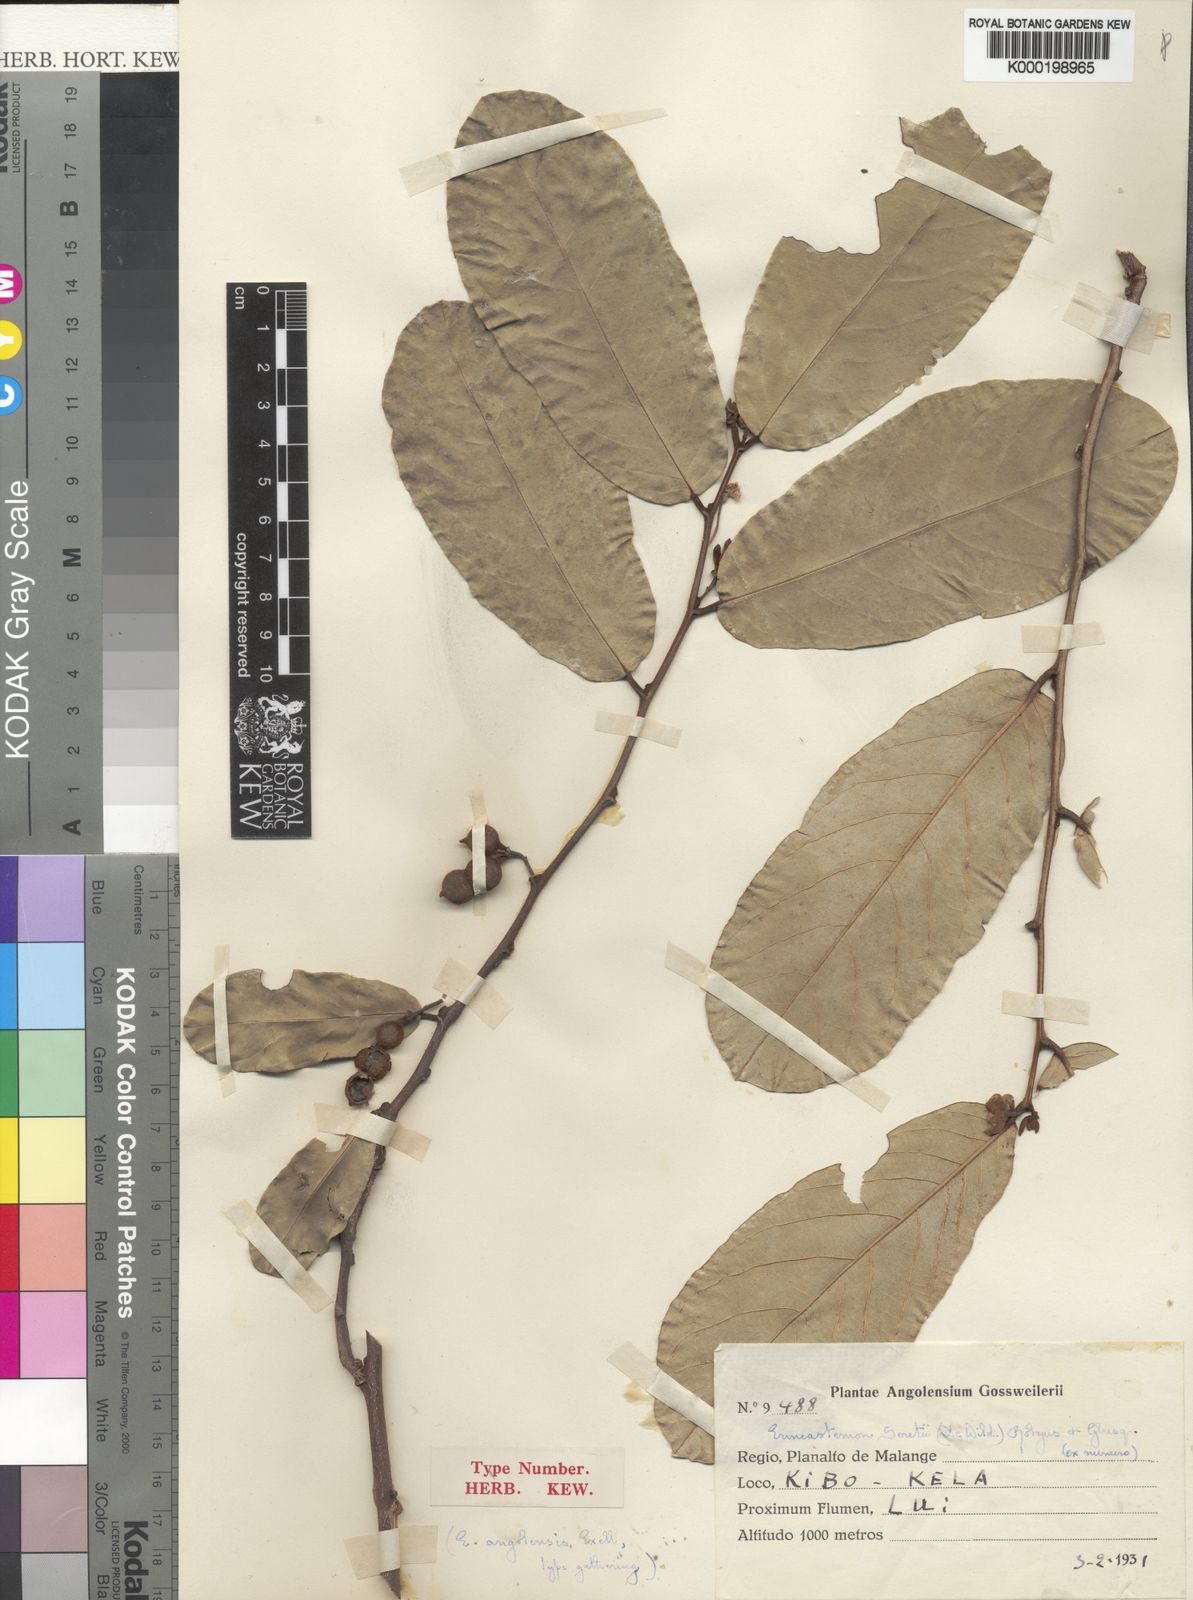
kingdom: Plantae
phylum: Tracheophyta
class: Magnoliopsida
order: Magnoliales
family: Annonaceae
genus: Monanthotaxis
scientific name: Monanthotaxis
